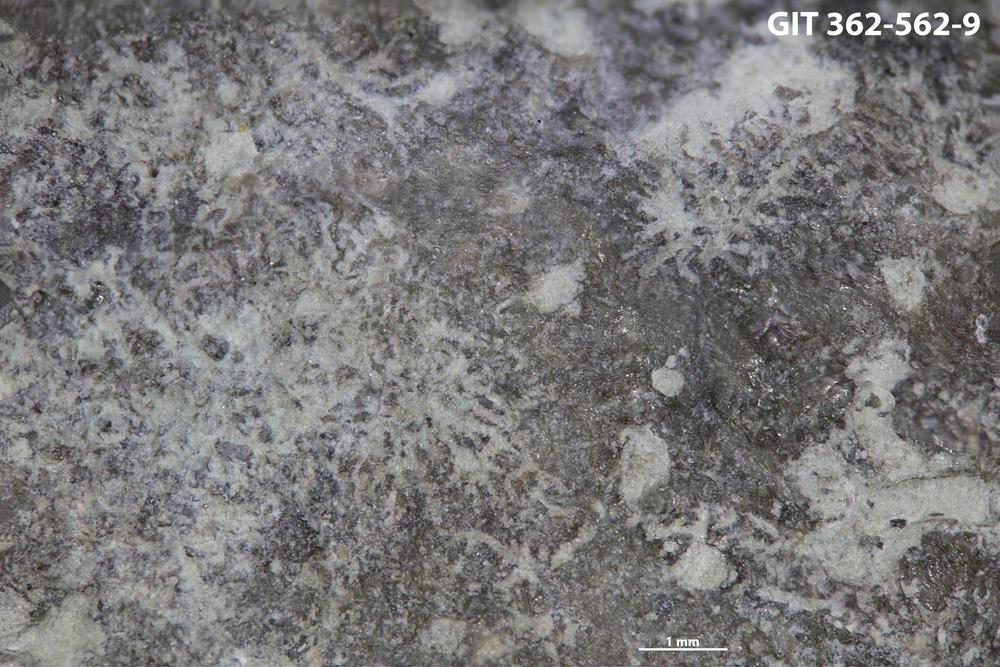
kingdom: Animalia
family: Dendrinidae
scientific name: Dendrinidae
